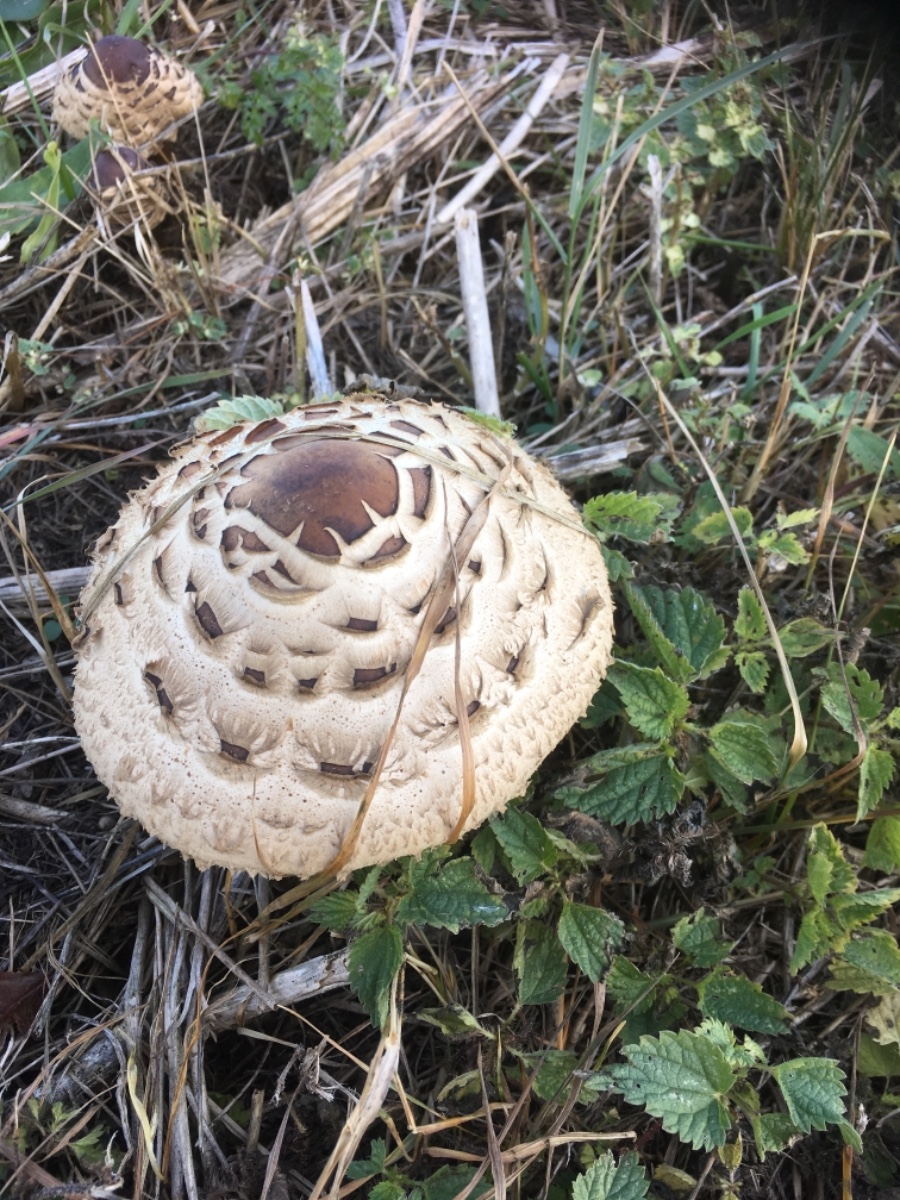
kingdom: Fungi
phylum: Basidiomycota
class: Agaricomycetes
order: Agaricales
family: Agaricaceae
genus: Chlorophyllum
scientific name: Chlorophyllum rhacodes
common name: ægte rabarberhat
